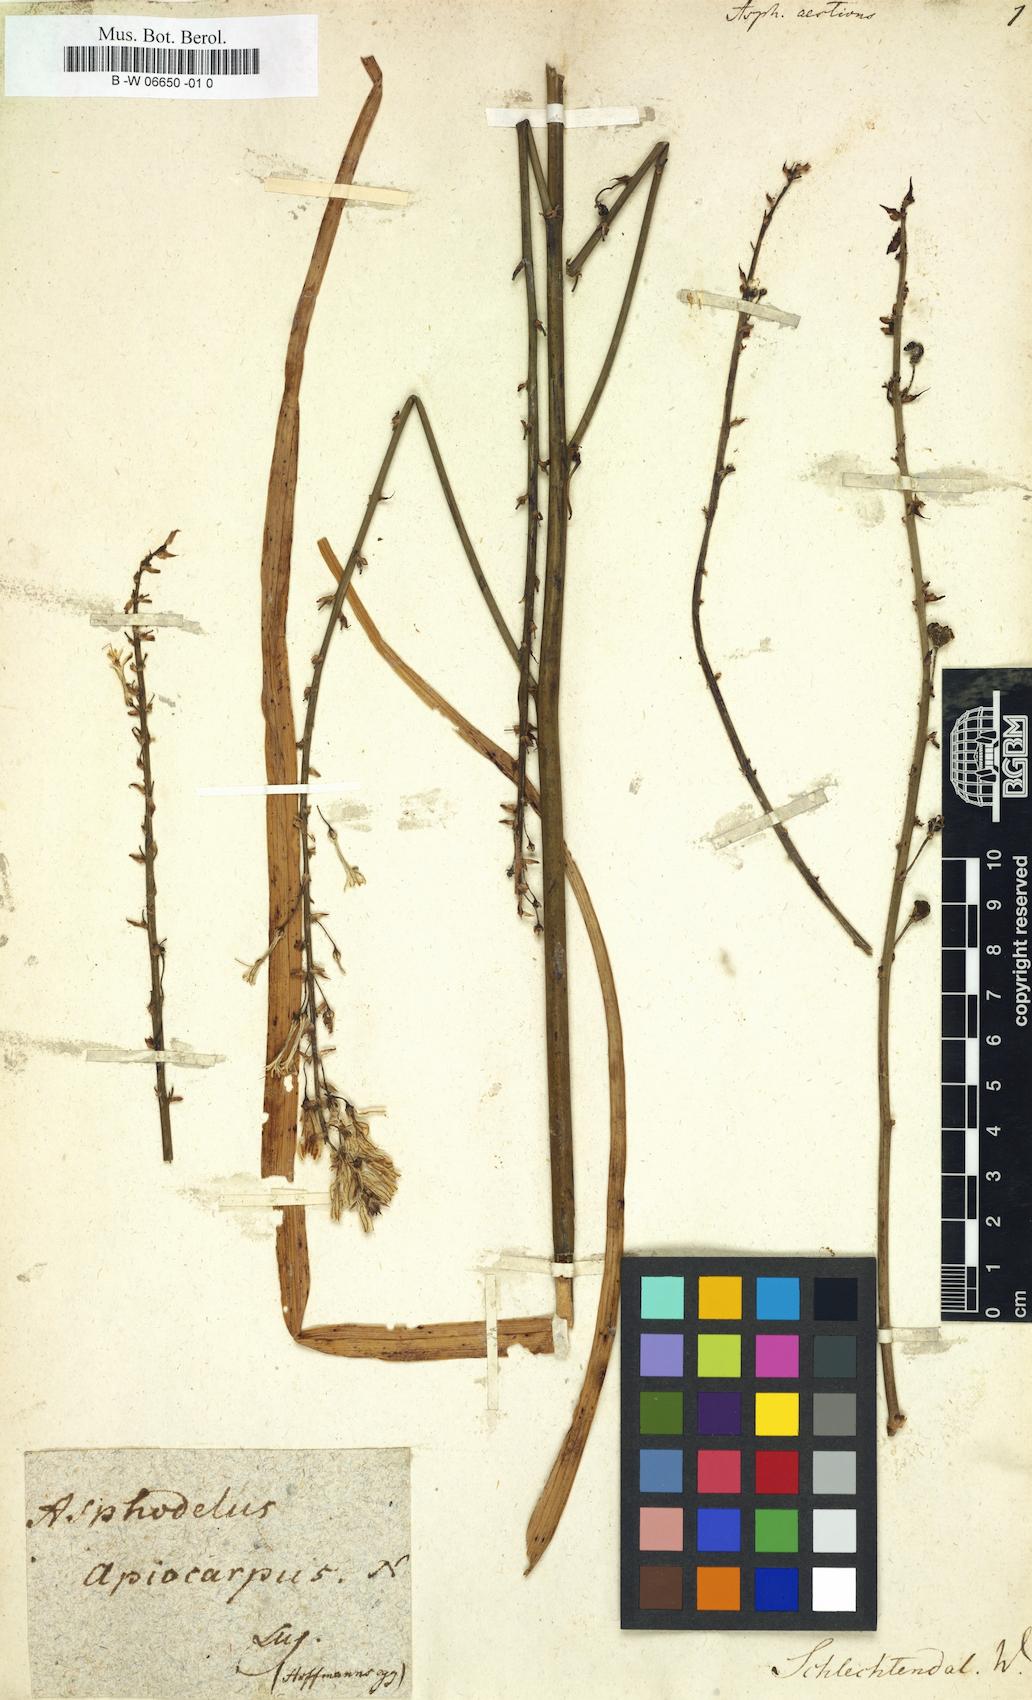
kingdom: Plantae
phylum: Tracheophyta
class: Liliopsida
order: Asparagales
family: Asphodelaceae
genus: Asphodelus
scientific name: Asphodelus aestivus
